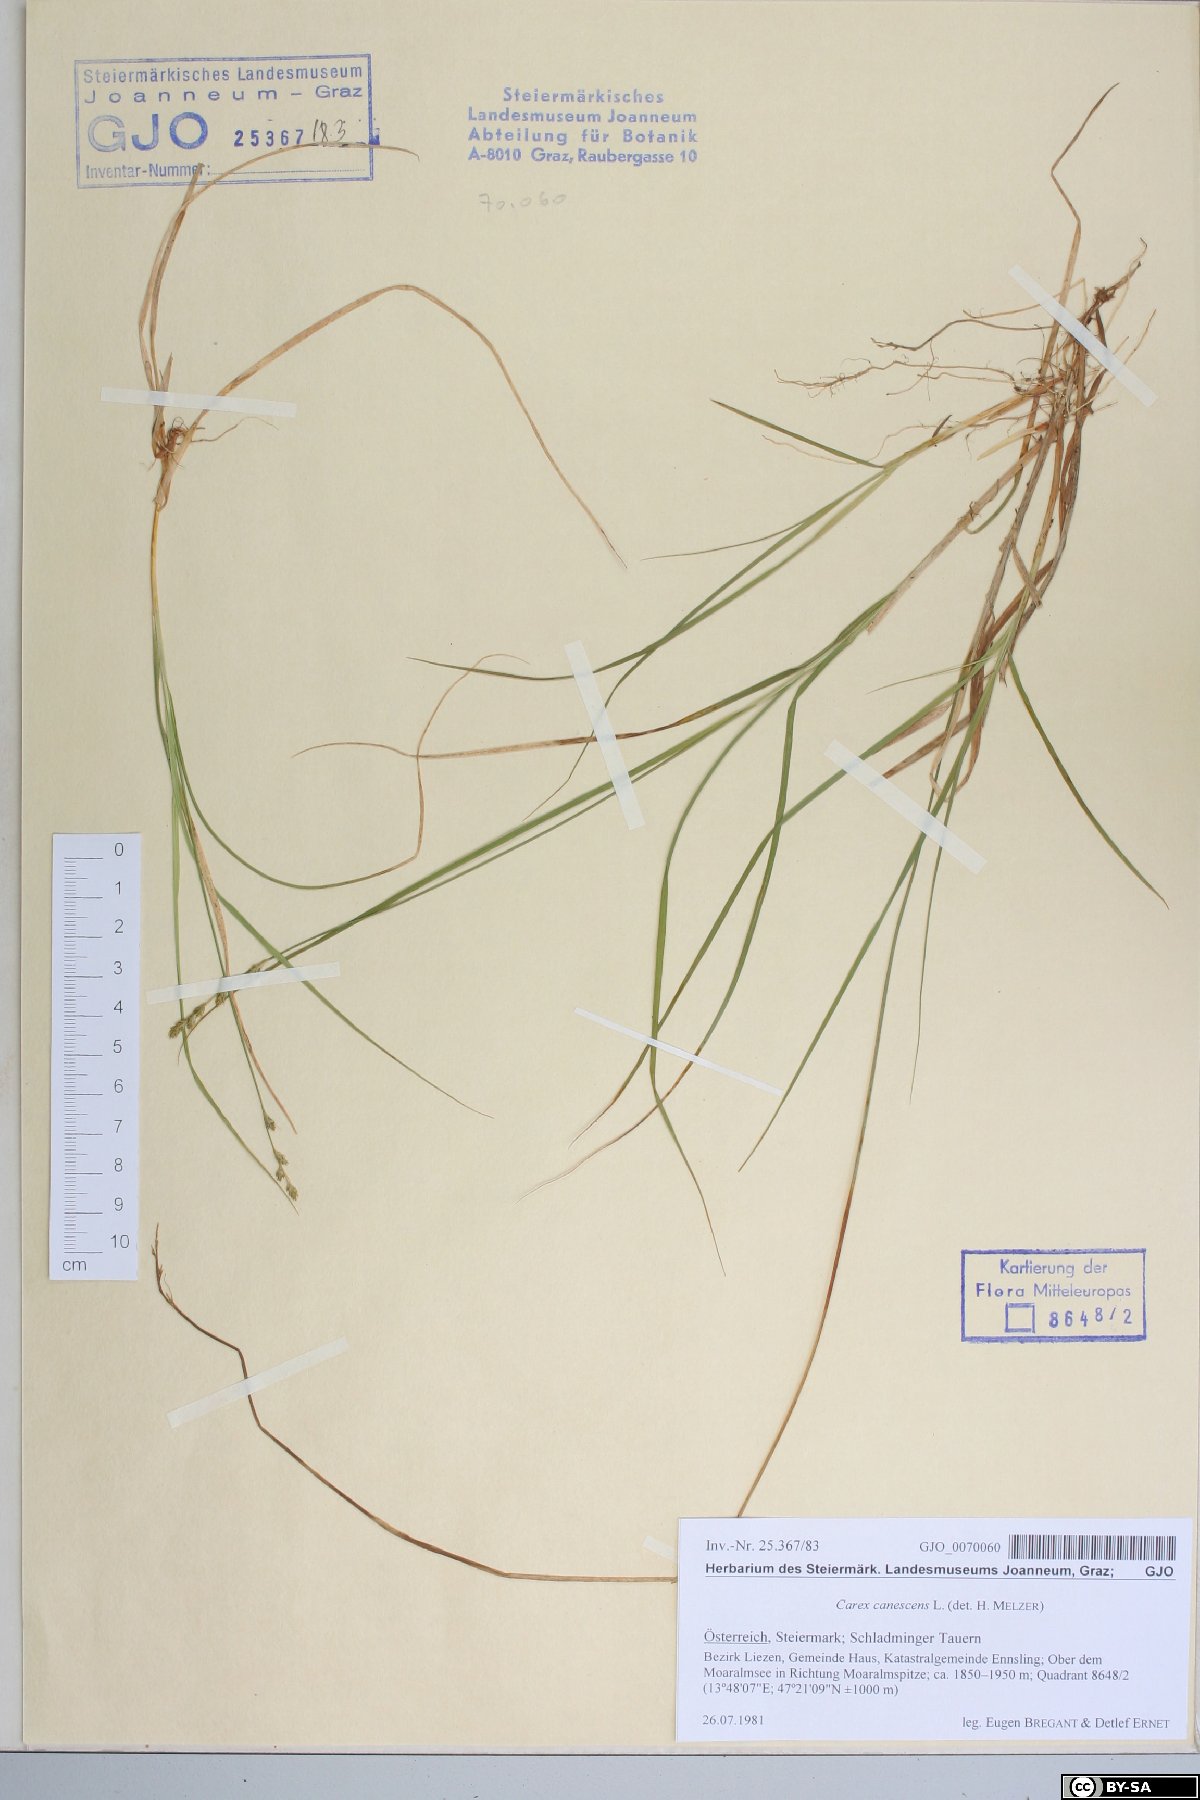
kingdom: Plantae
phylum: Tracheophyta
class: Liliopsida
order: Poales
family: Cyperaceae
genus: Carex
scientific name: Carex canescens
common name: White sedge
